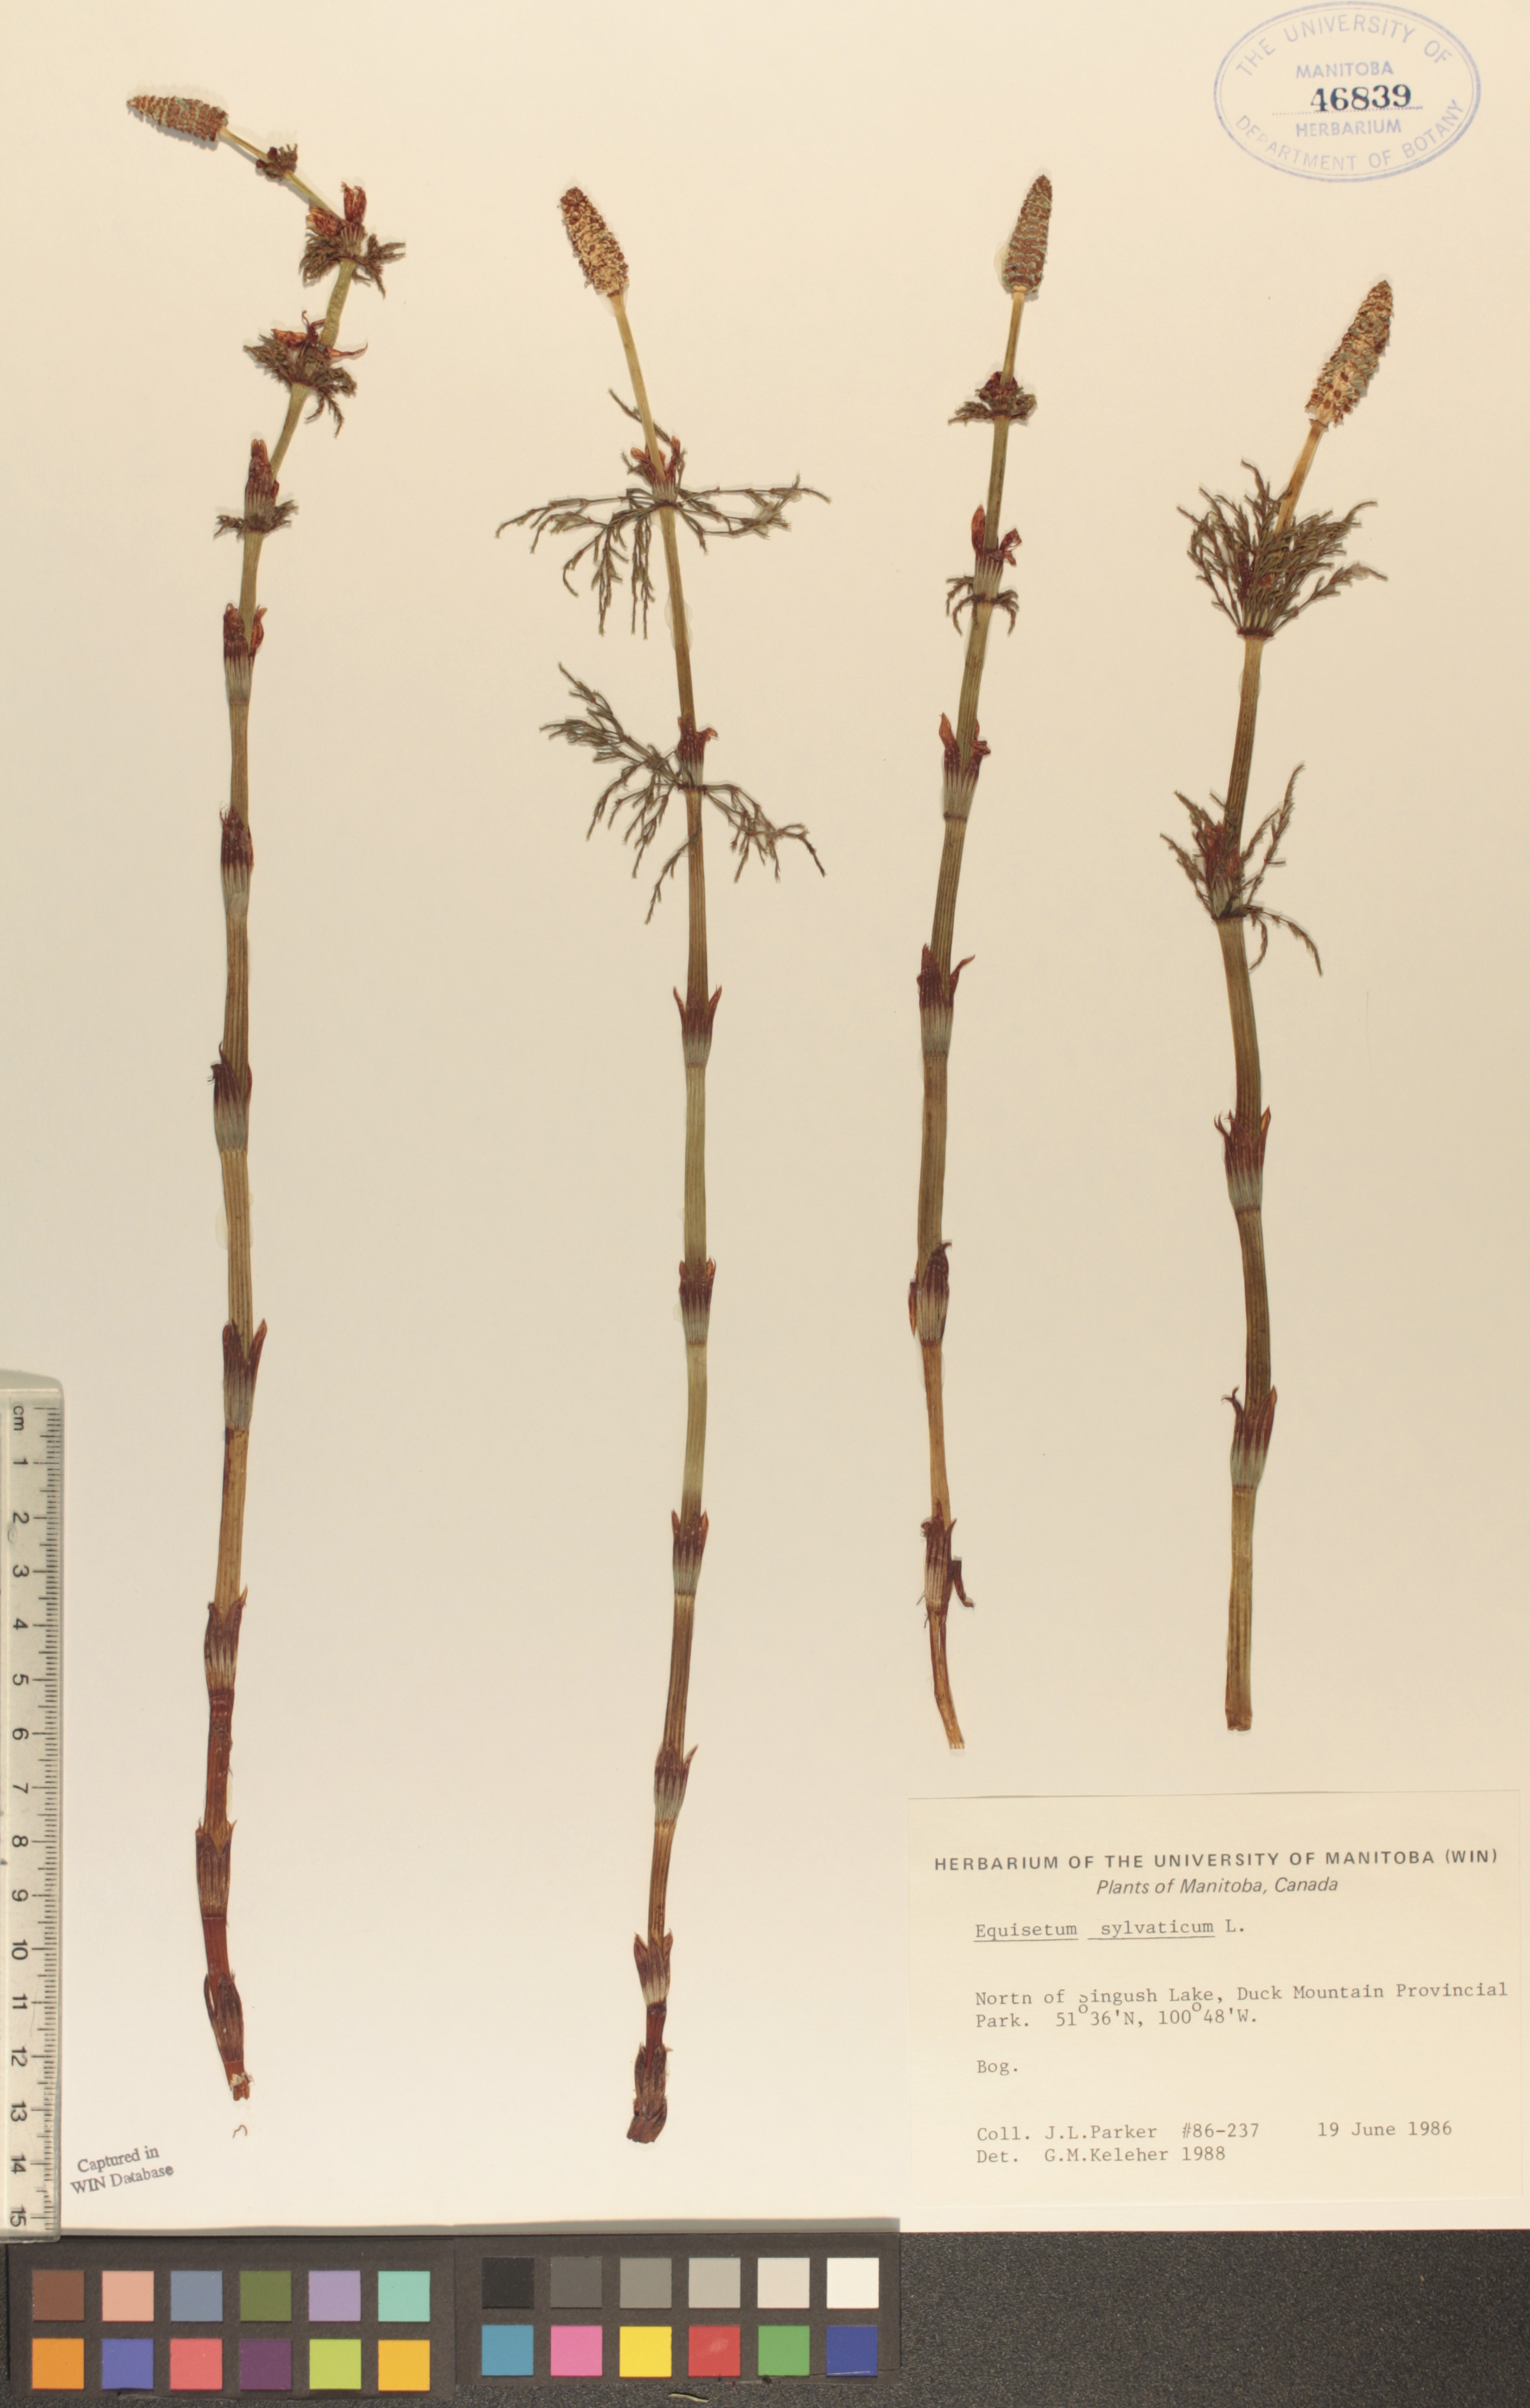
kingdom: Plantae
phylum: Tracheophyta
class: Polypodiopsida
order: Equisetales
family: Equisetaceae
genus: Equisetum
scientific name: Equisetum sylvaticum
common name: Wood horsetail
